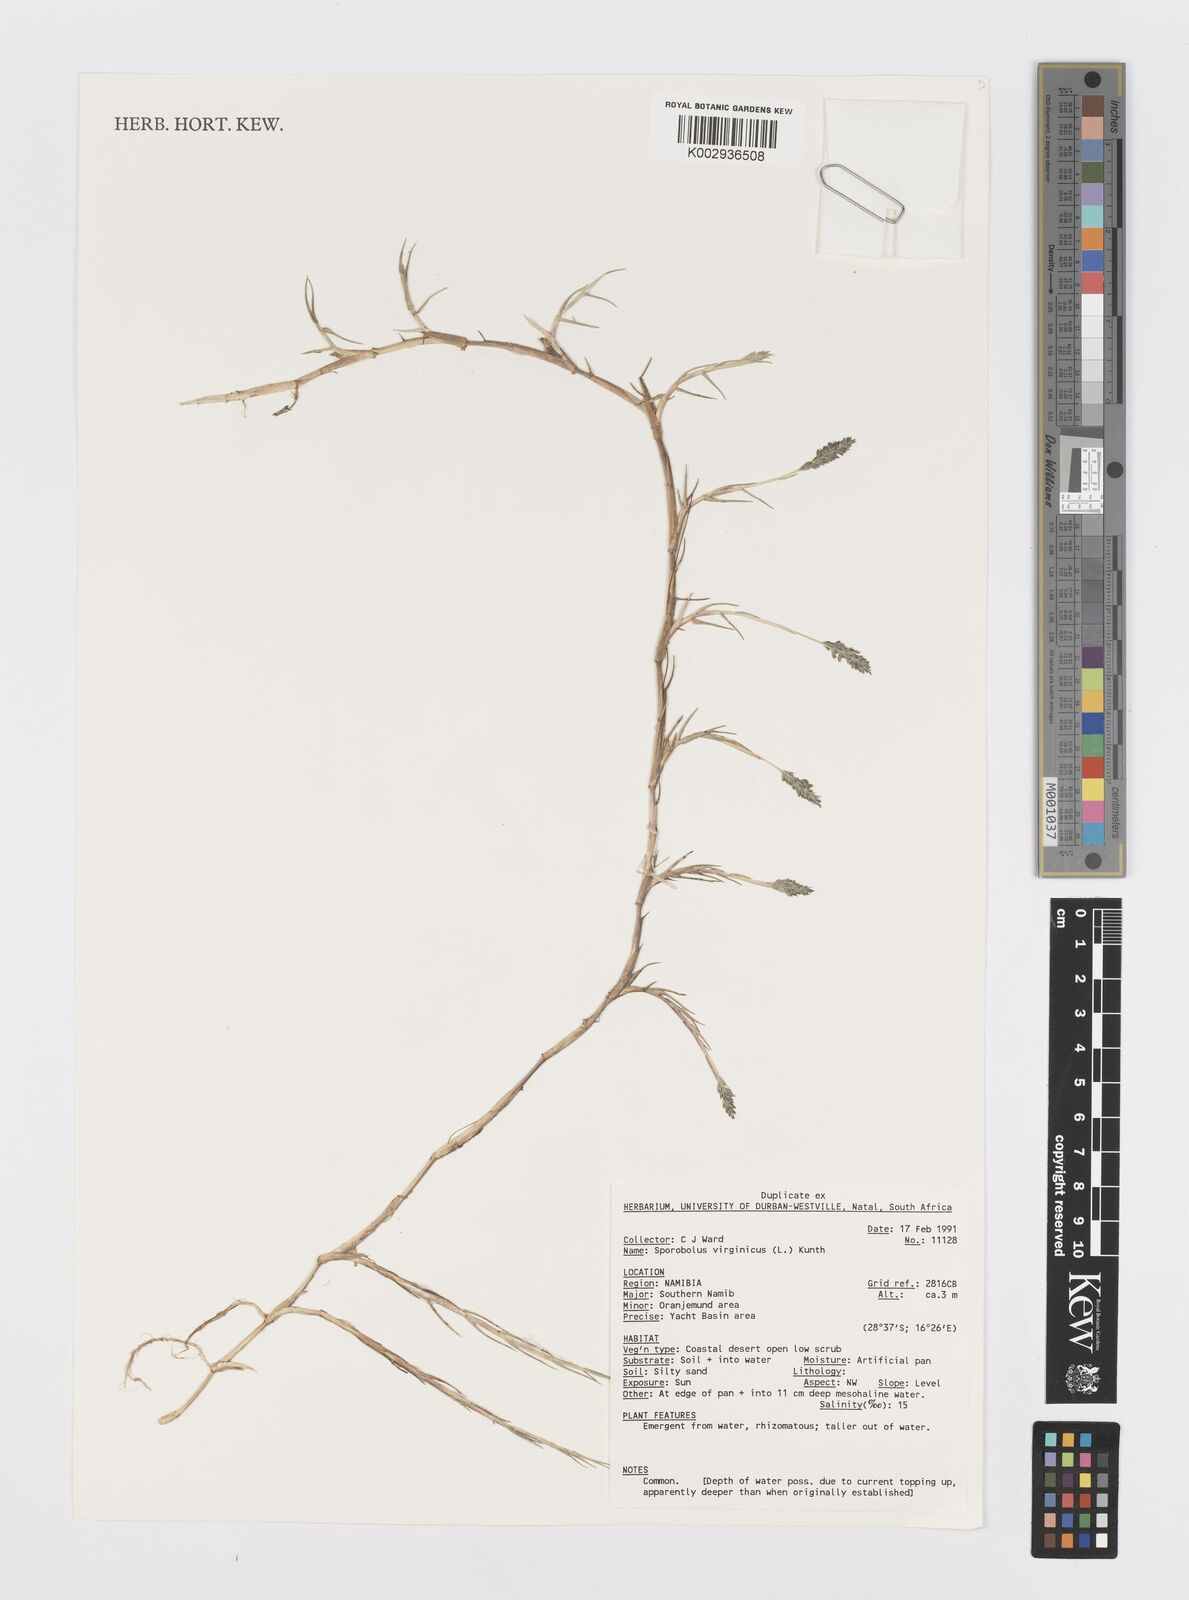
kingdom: Plantae
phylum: Tracheophyta
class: Liliopsida
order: Poales
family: Poaceae
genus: Sporobolus
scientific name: Sporobolus virginicus
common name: Beach dropseed
